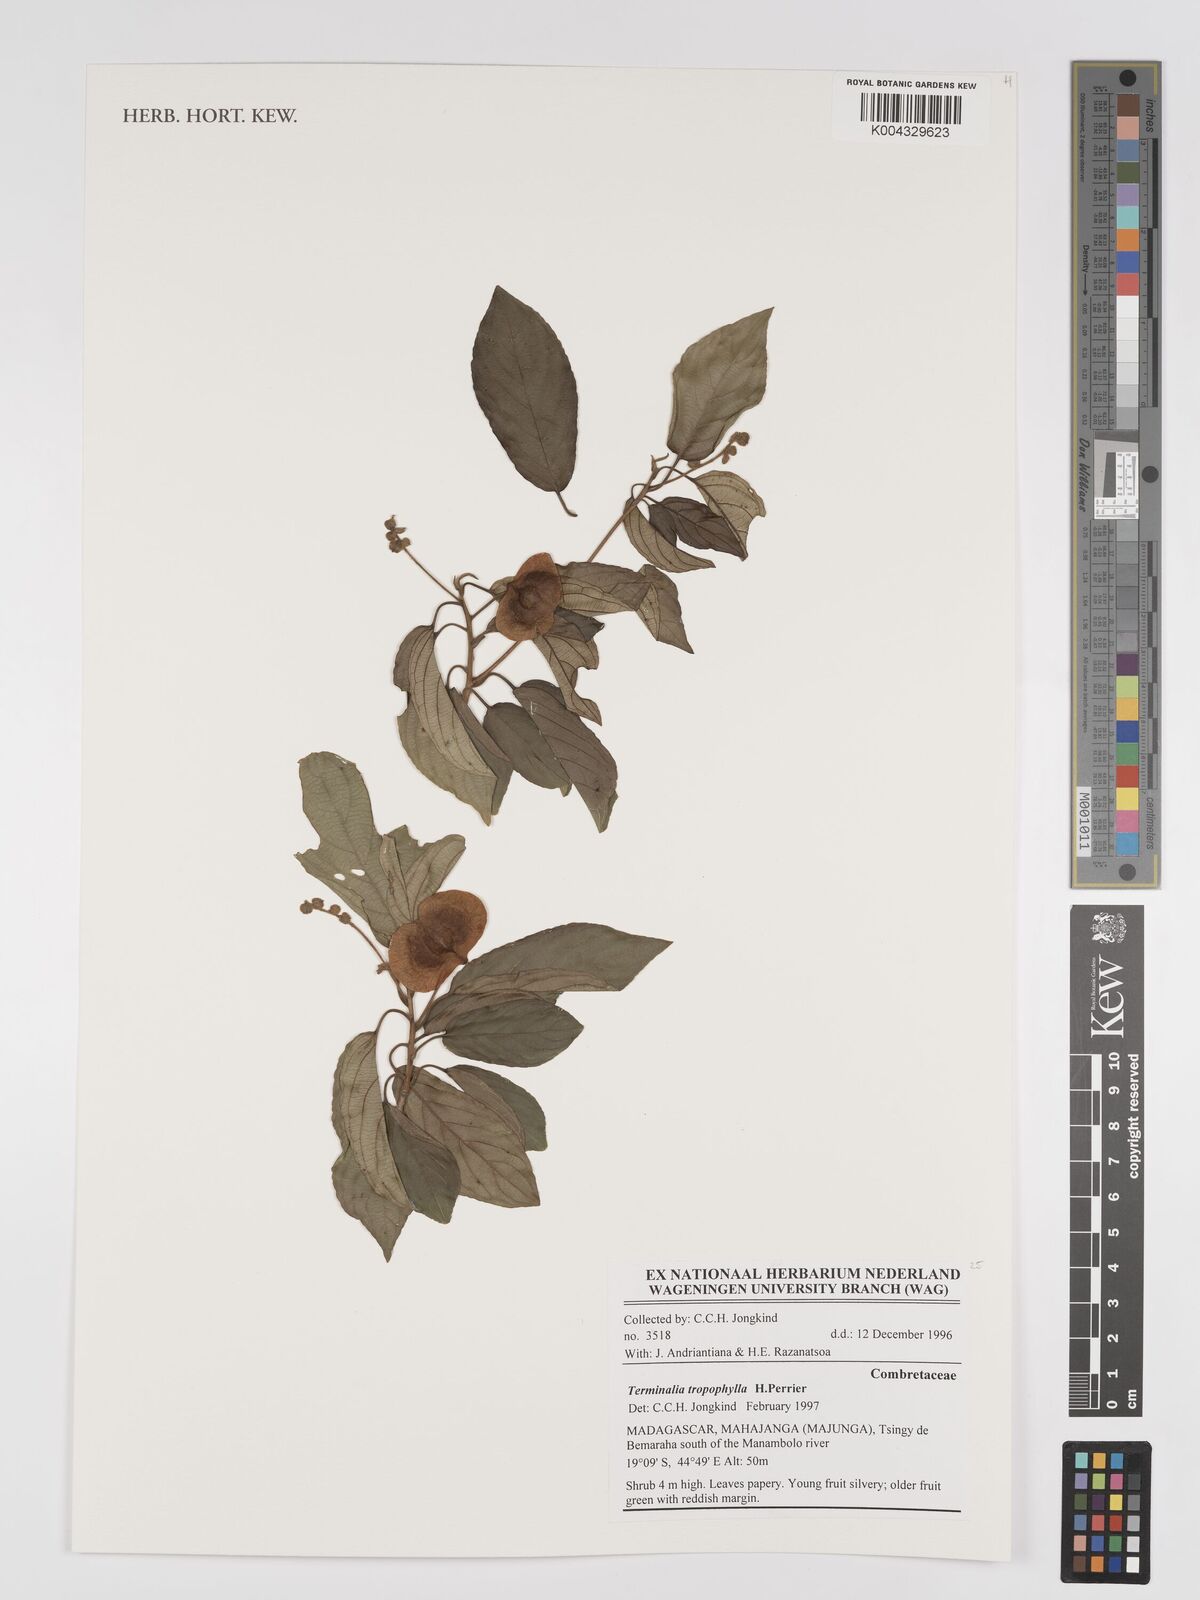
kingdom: Plantae
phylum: Tracheophyta
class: Magnoliopsida
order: Myrtales
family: Combretaceae
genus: Terminalia
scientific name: Terminalia tropophylla
